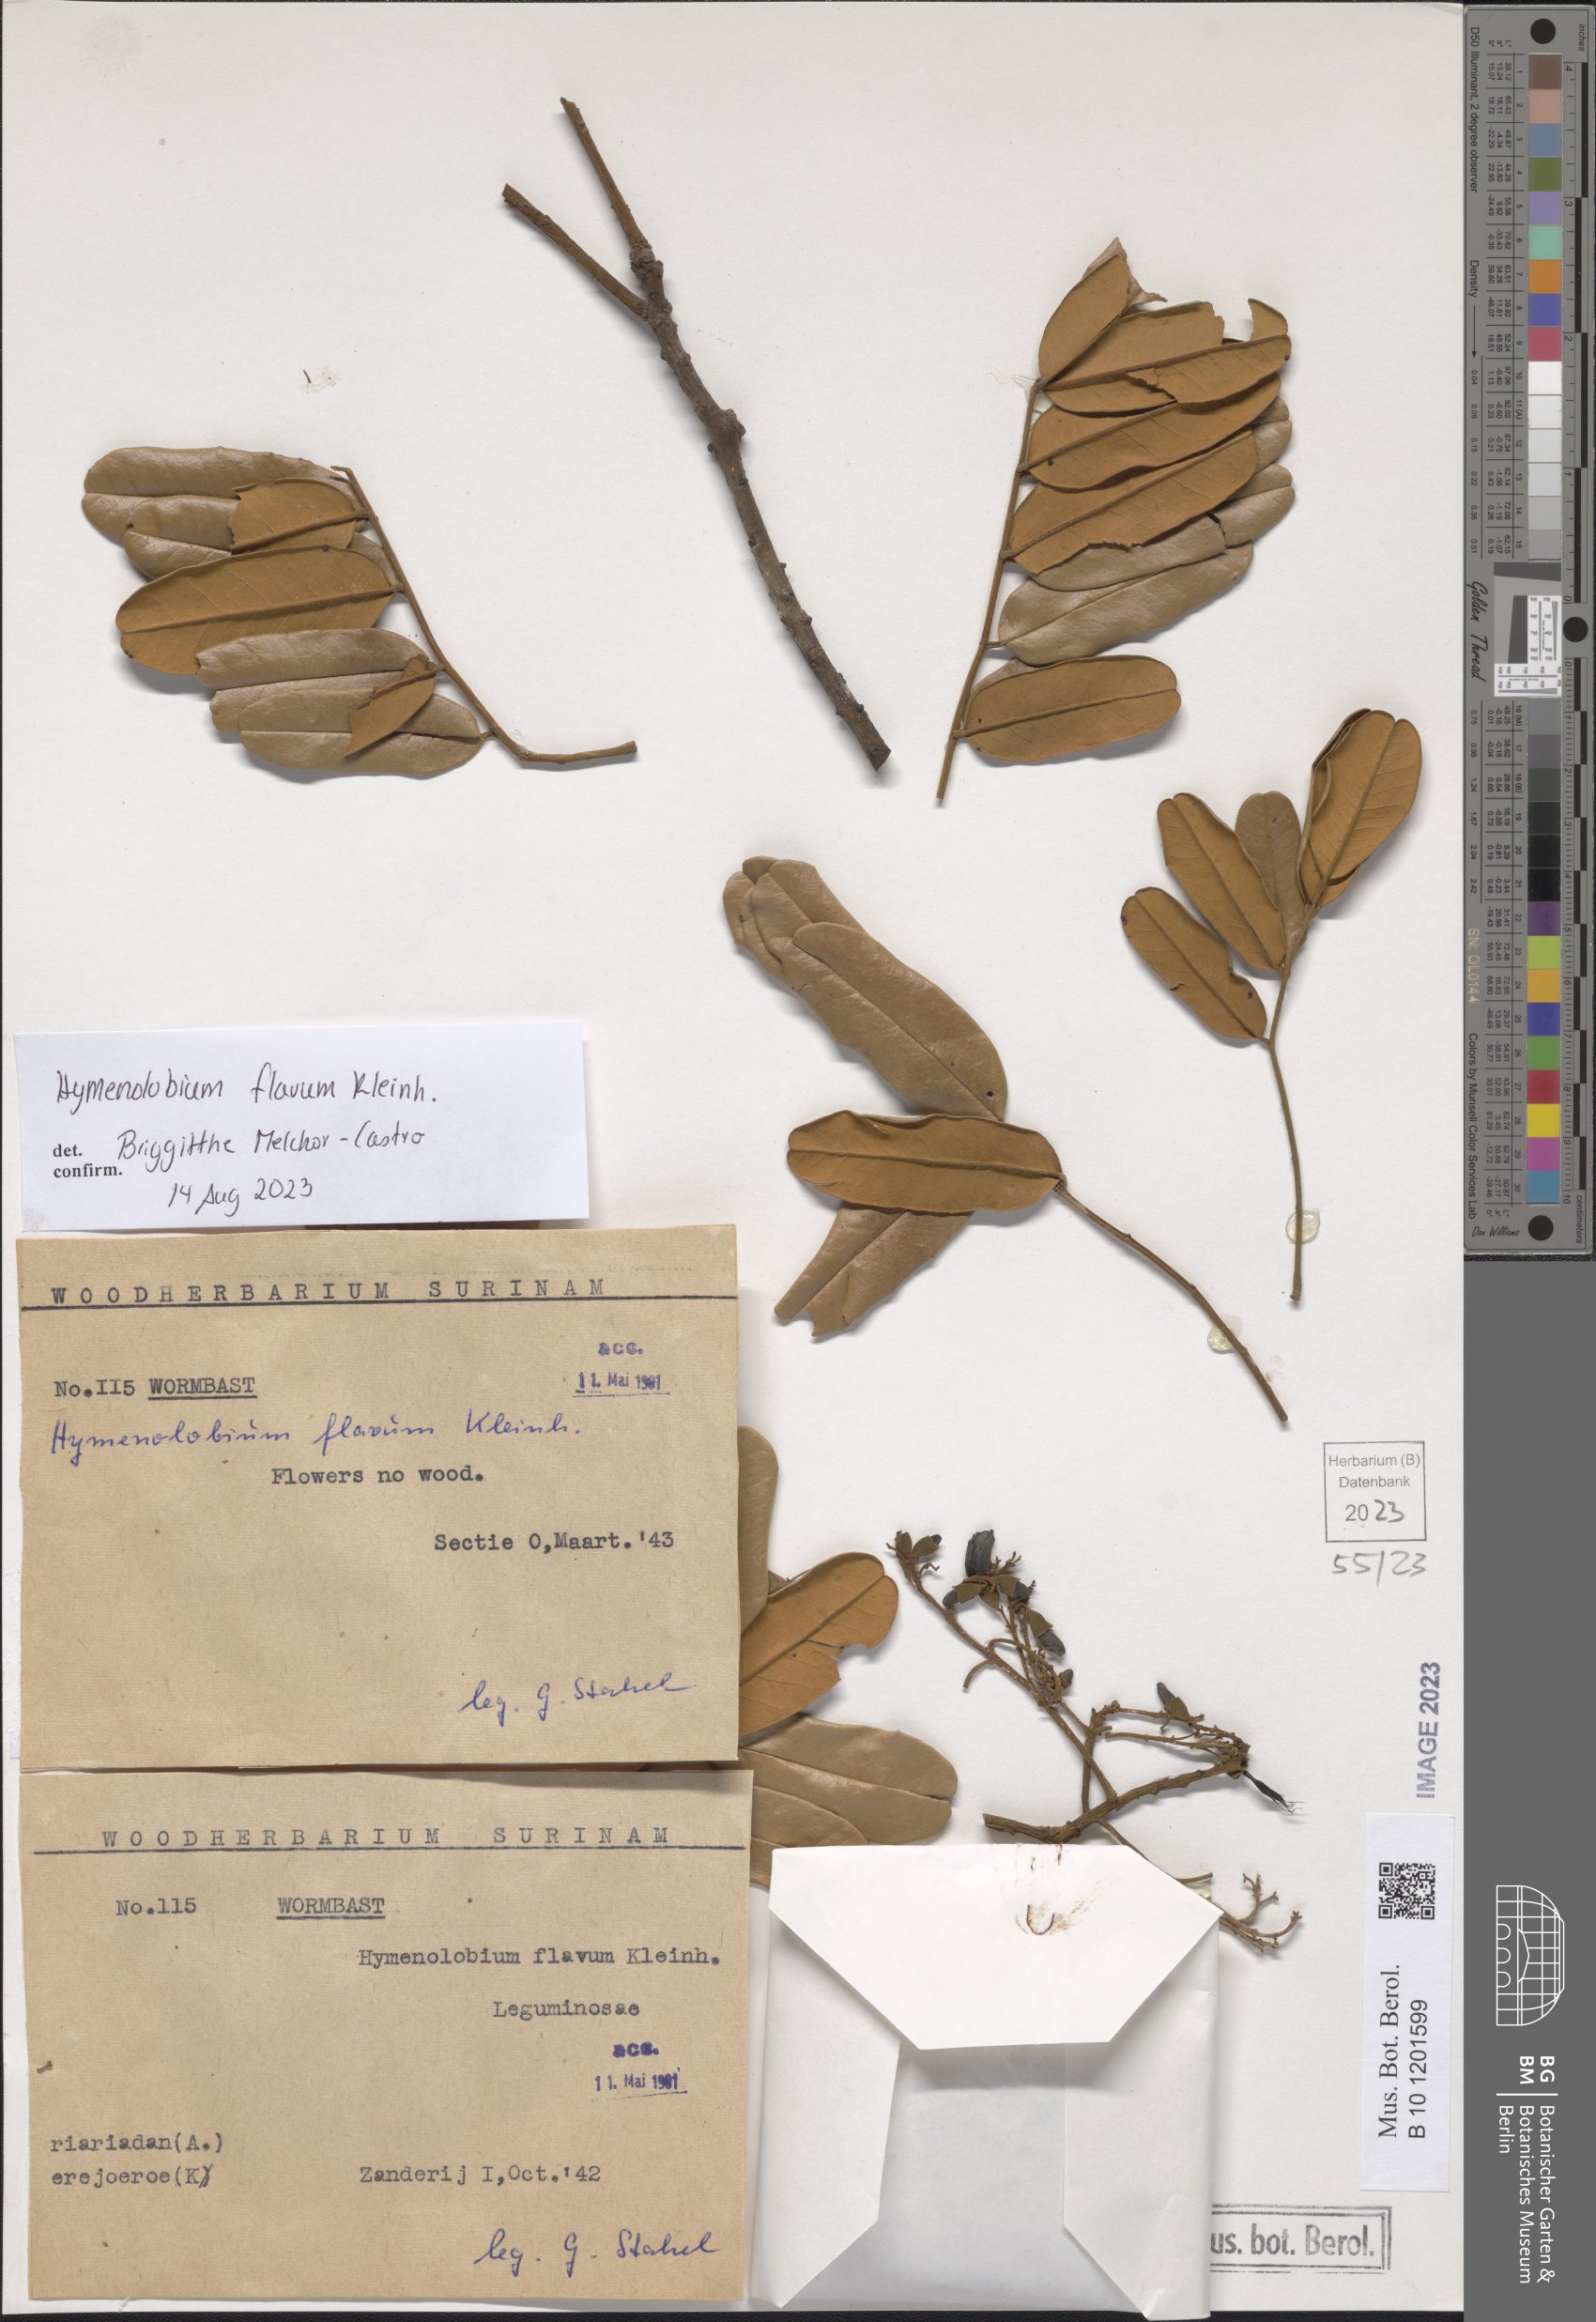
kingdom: Plantae
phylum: Tracheophyta
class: Magnoliopsida
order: Fabales
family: Fabaceae
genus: Hymenolobium
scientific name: Hymenolobium flavum
